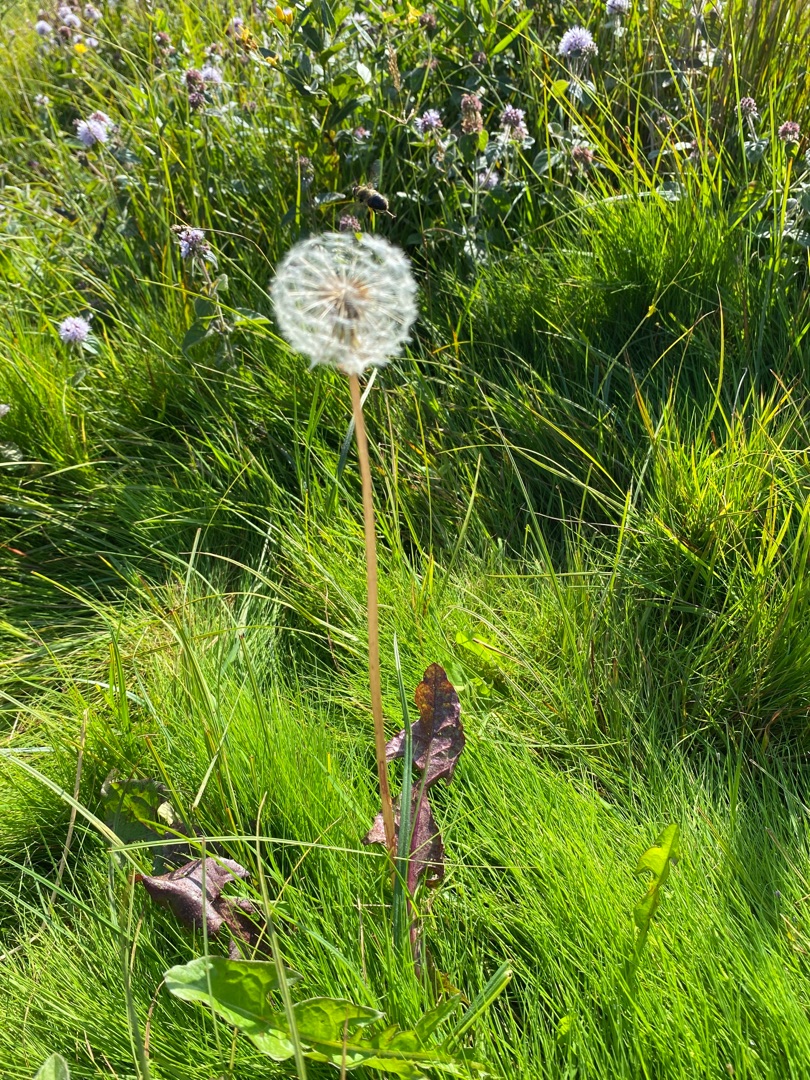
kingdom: Plantae
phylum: Tracheophyta
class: Magnoliopsida
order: Asterales
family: Asteraceae
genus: Taraxacum
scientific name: Taraxacum
